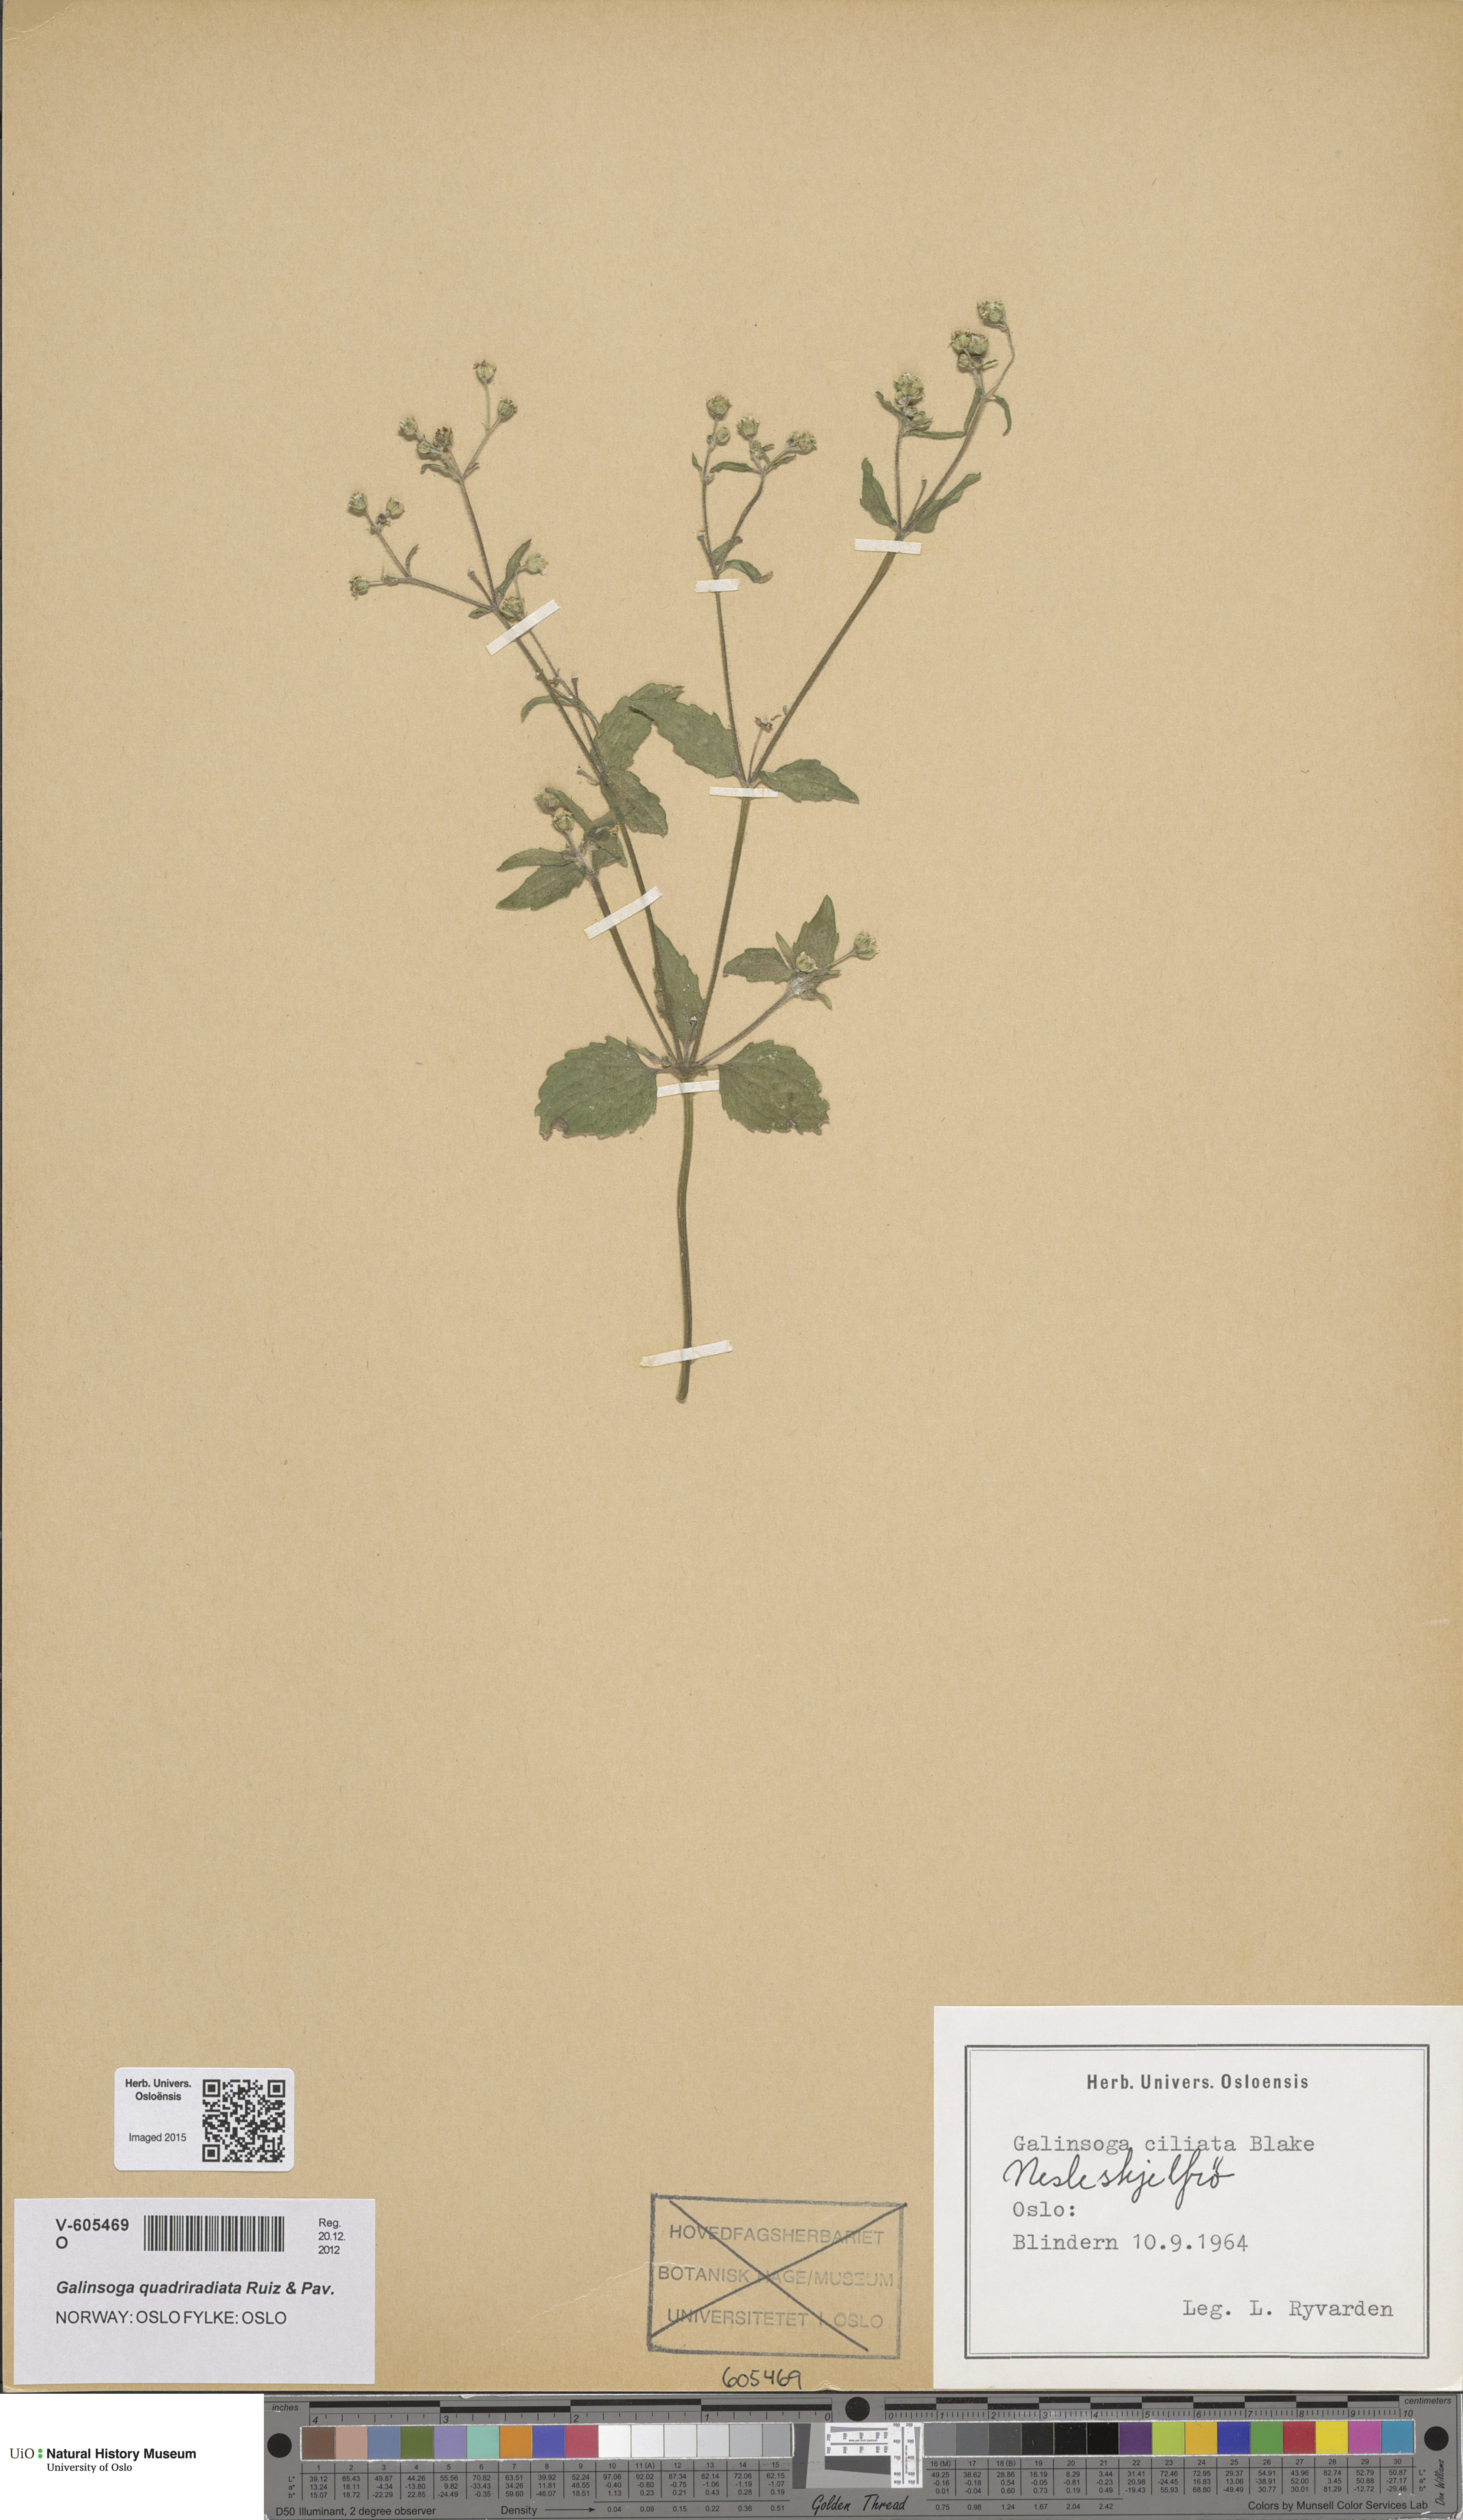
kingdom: Plantae
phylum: Tracheophyta
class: Magnoliopsida
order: Asterales
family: Asteraceae
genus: Galinsoga
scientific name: Galinsoga quadriradiata
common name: Shaggy soldier
